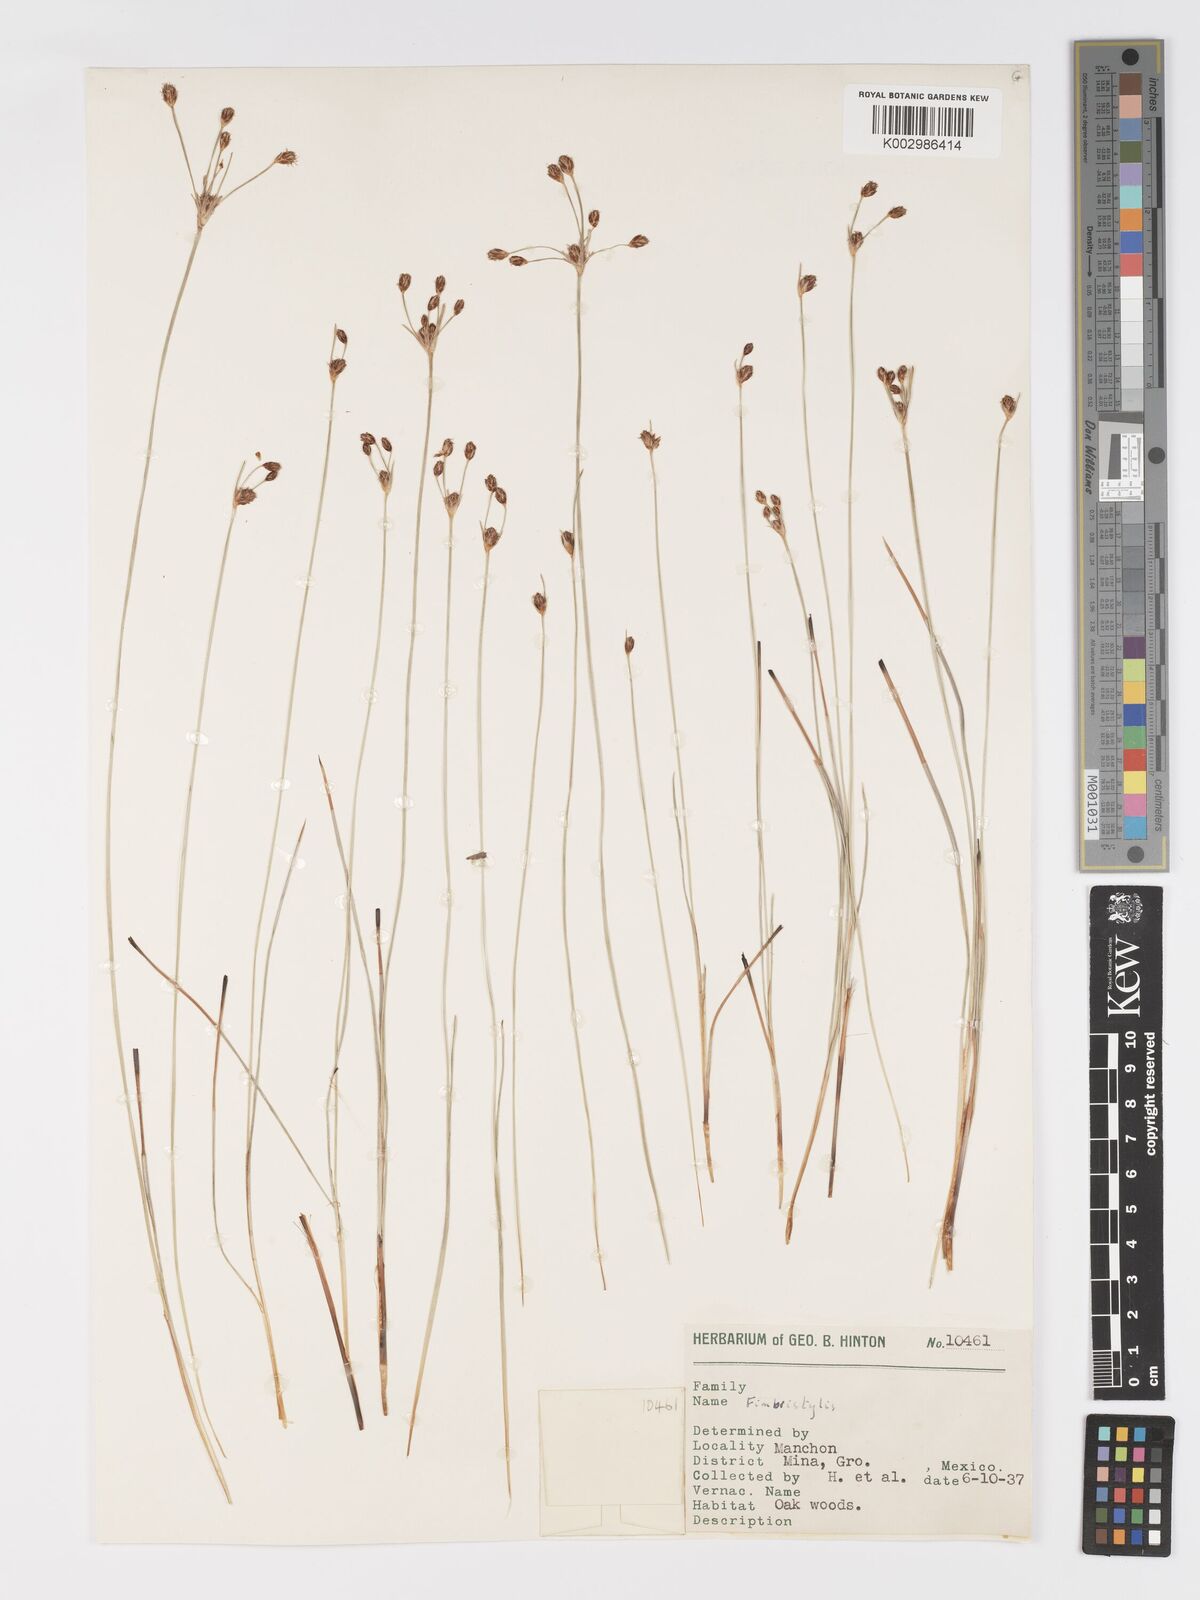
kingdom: Plantae
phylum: Tracheophyta
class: Liliopsida
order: Poales
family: Cyperaceae
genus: Fimbristylis
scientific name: Fimbristylis
